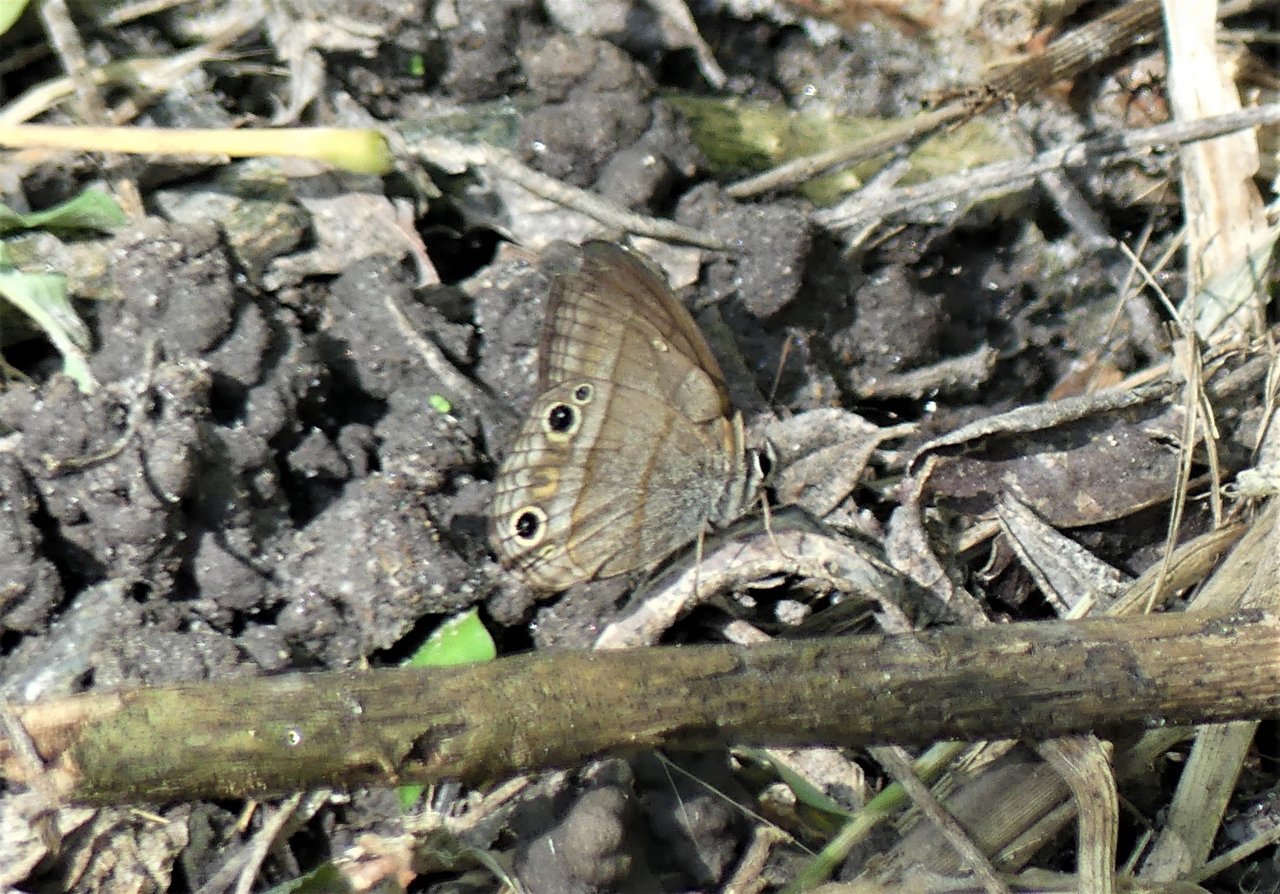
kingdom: Animalia
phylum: Arthropoda
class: Insecta
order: Lepidoptera
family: Nymphalidae
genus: Euptychia
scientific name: Euptychia Cissia pompilia
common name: Plain Satyr
